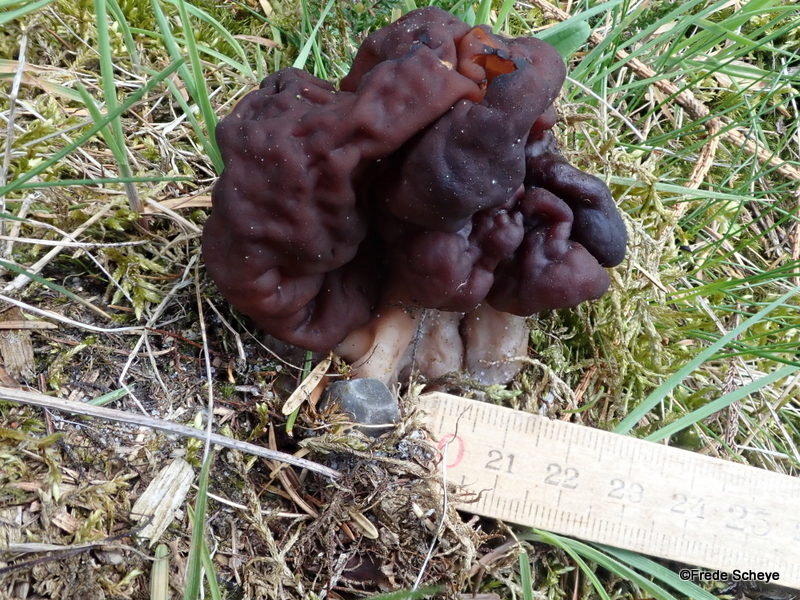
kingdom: Fungi
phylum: Ascomycota
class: Pezizomycetes
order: Pezizales
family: Discinaceae
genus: Gyromitra
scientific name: Gyromitra esculenta
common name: ægte stenmorkel
